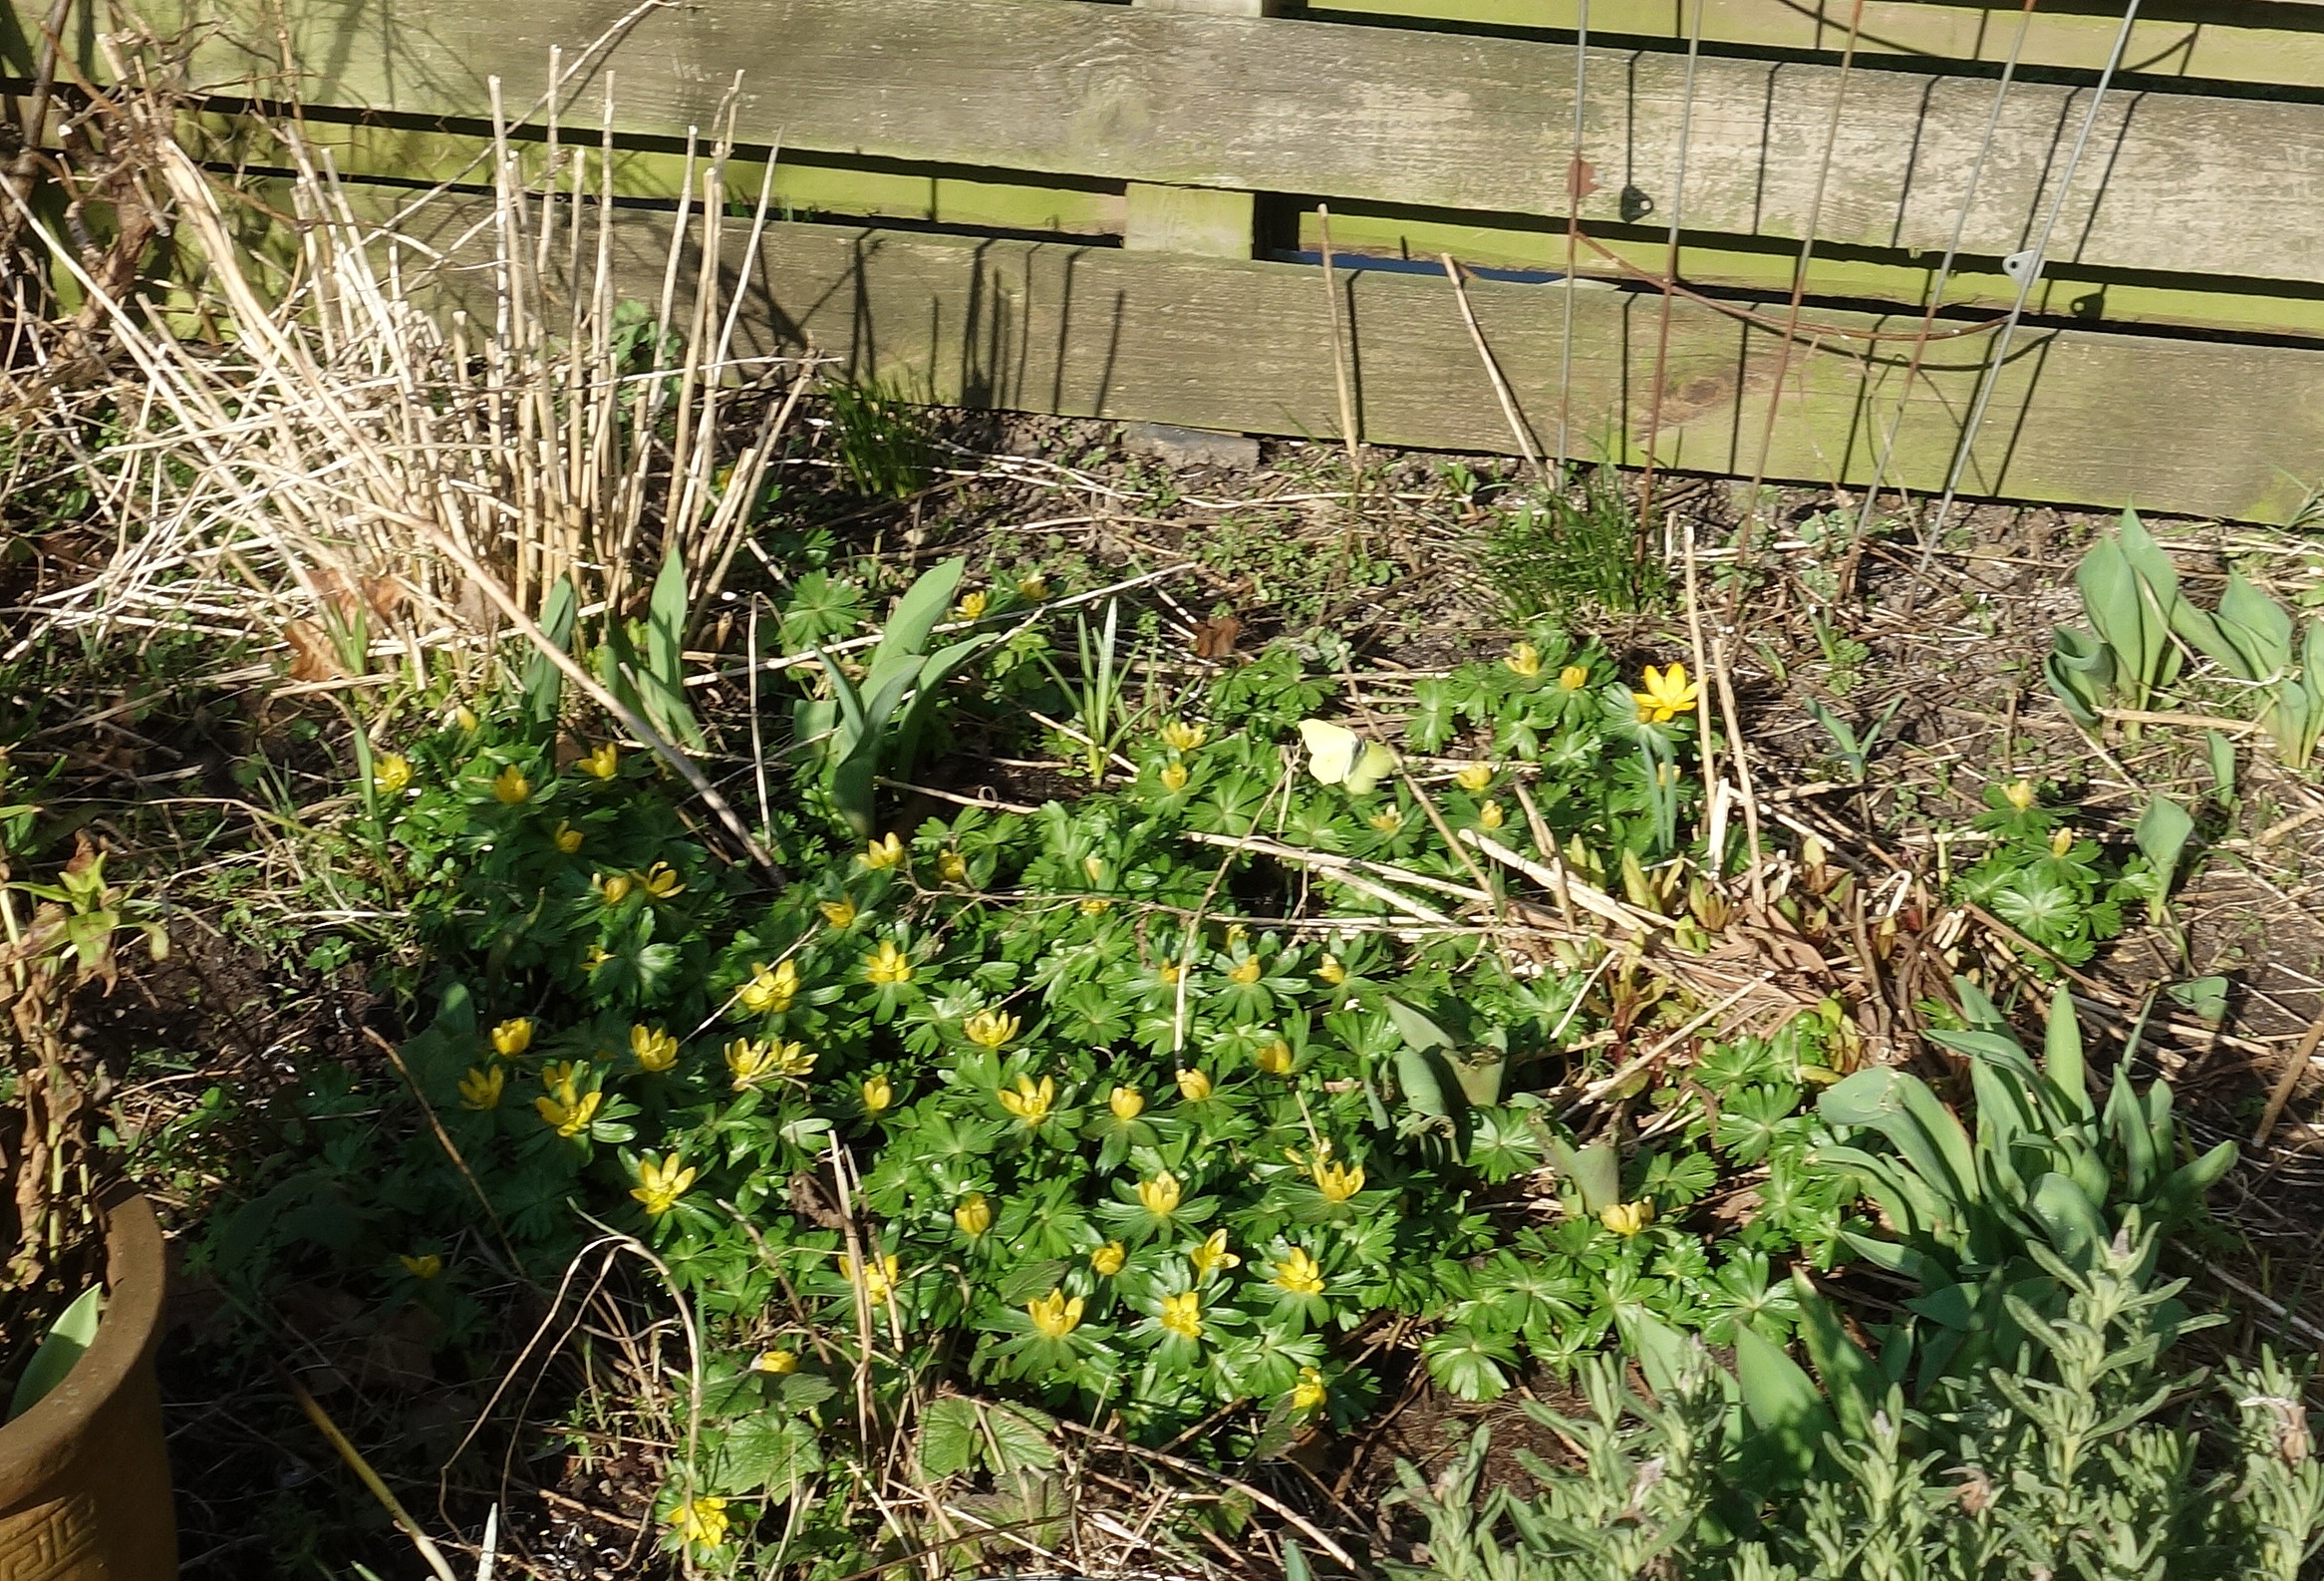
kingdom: Animalia
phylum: Arthropoda
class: Insecta
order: Lepidoptera
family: Pieridae
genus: Gonepteryx
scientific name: Gonepteryx rhamni
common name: Citronsommerfugl
